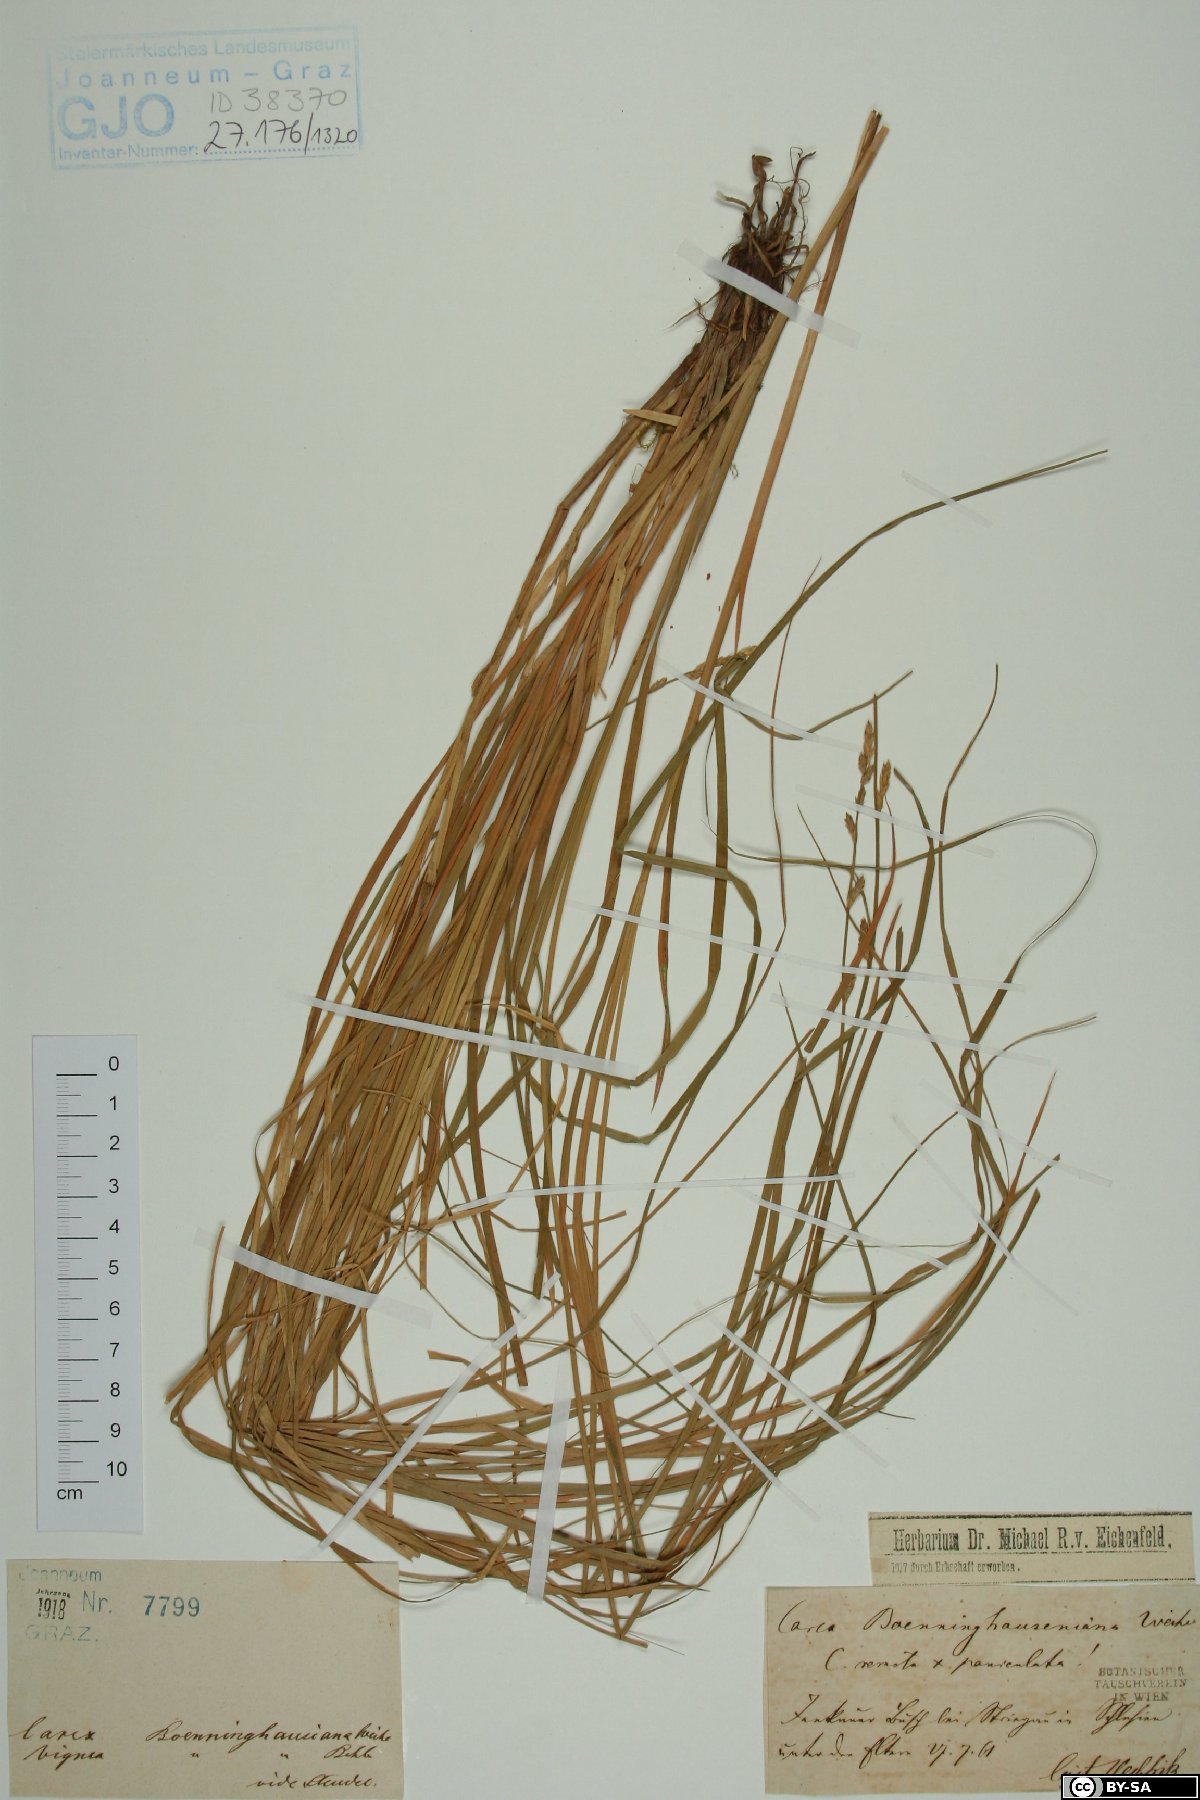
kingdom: Plantae
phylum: Tracheophyta
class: Liliopsida
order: Poales
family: Cyperaceae
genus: Carex
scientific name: Carex boenninghausiana
